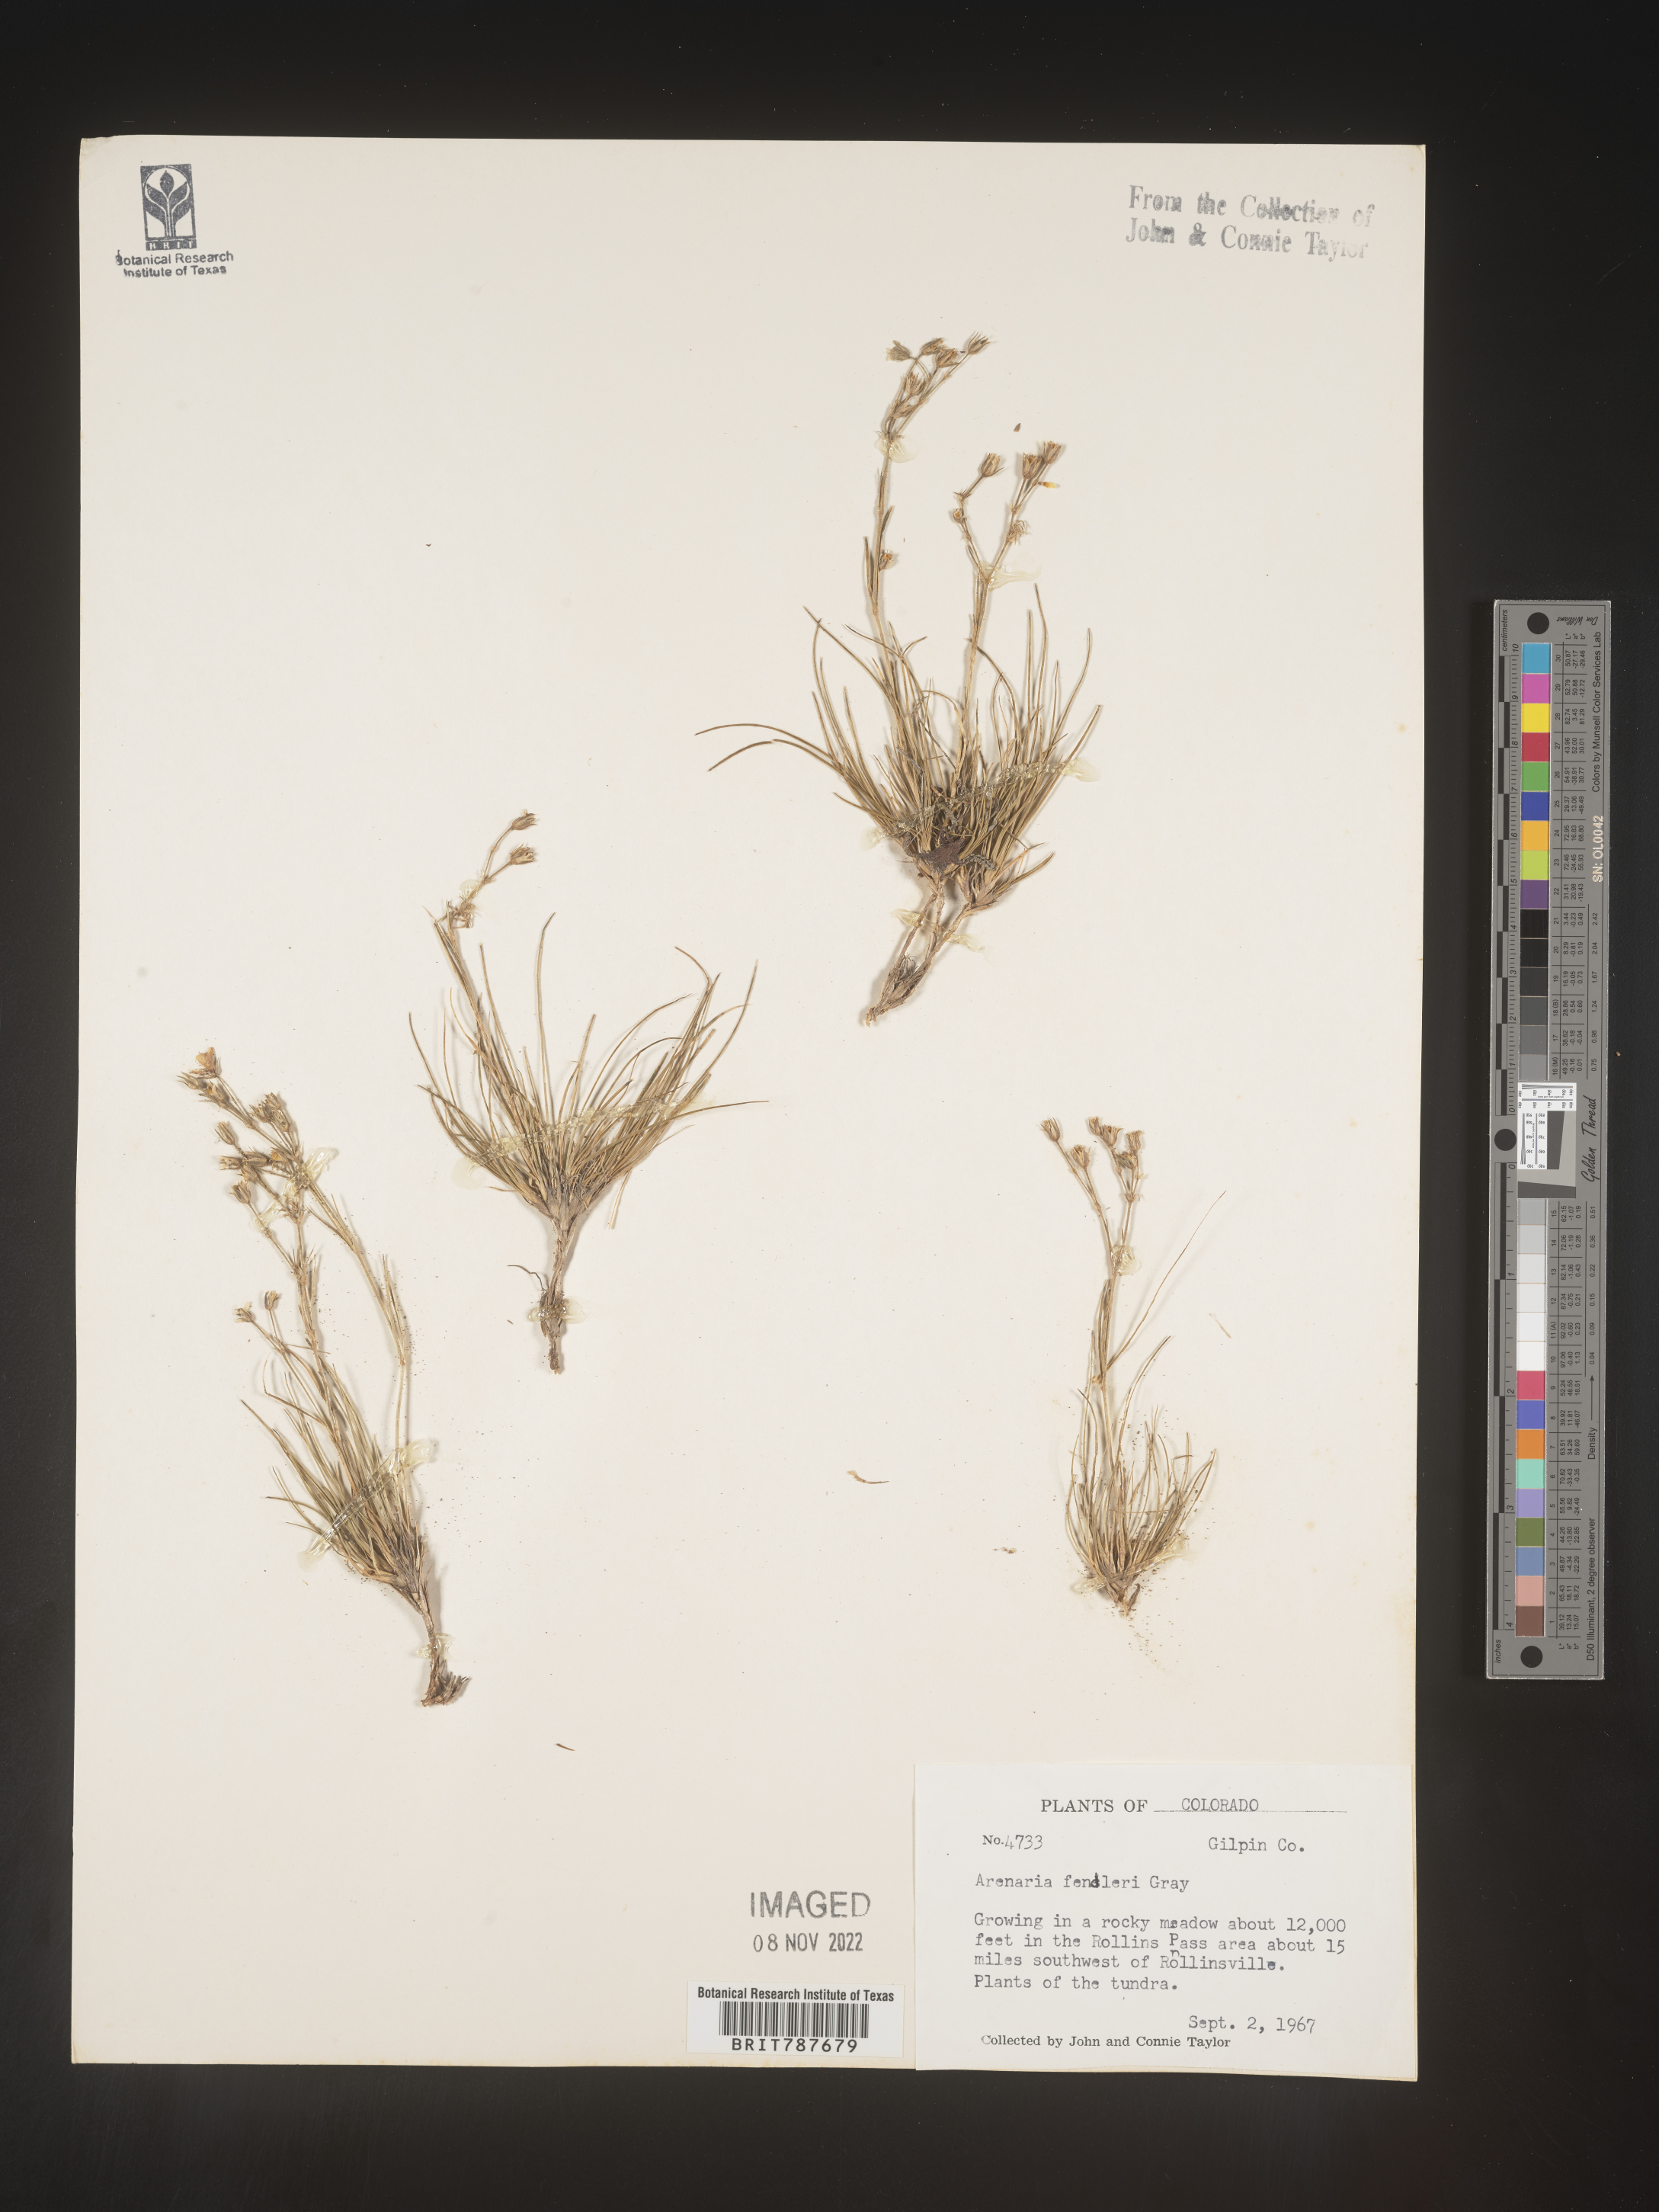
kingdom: Plantae
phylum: Tracheophyta
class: Magnoliopsida
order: Caryophyllales
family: Caryophyllaceae
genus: Arenaria
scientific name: Arenaria
